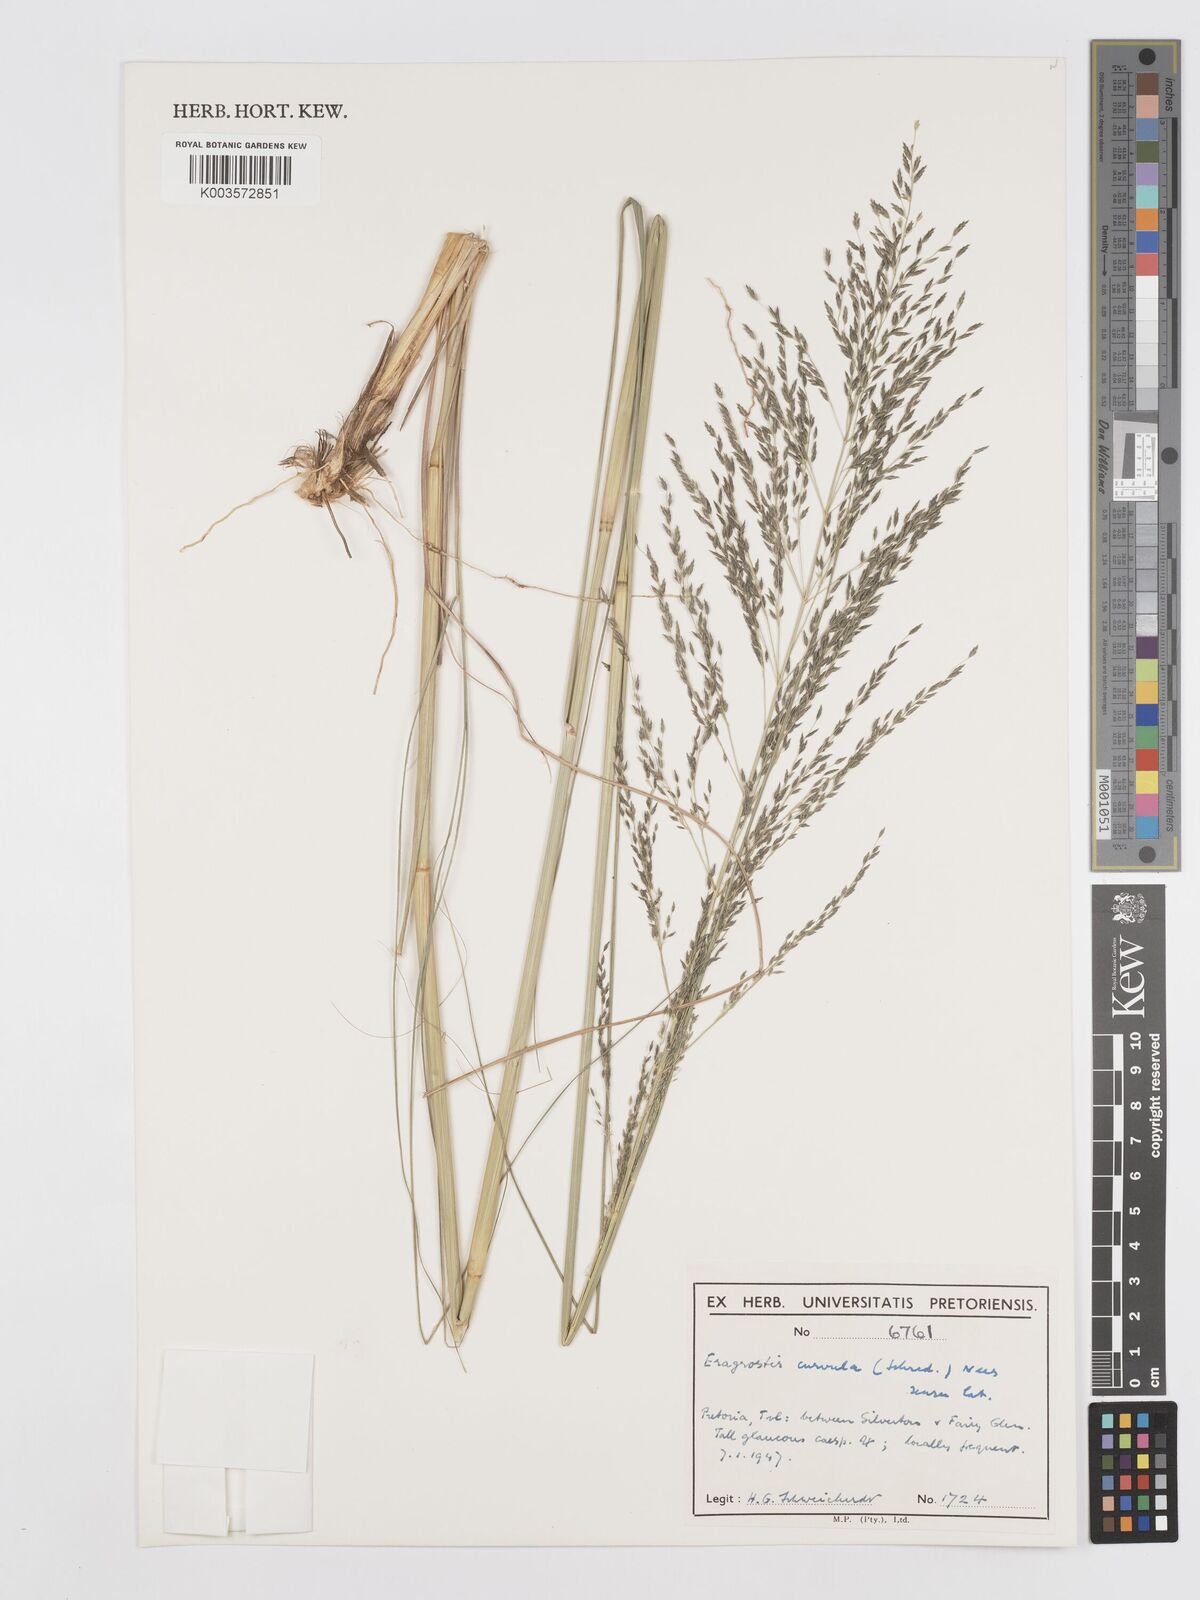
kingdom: Plantae
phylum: Tracheophyta
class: Liliopsida
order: Poales
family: Poaceae
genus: Eragrostis
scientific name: Eragrostis curvula
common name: African love-grass
